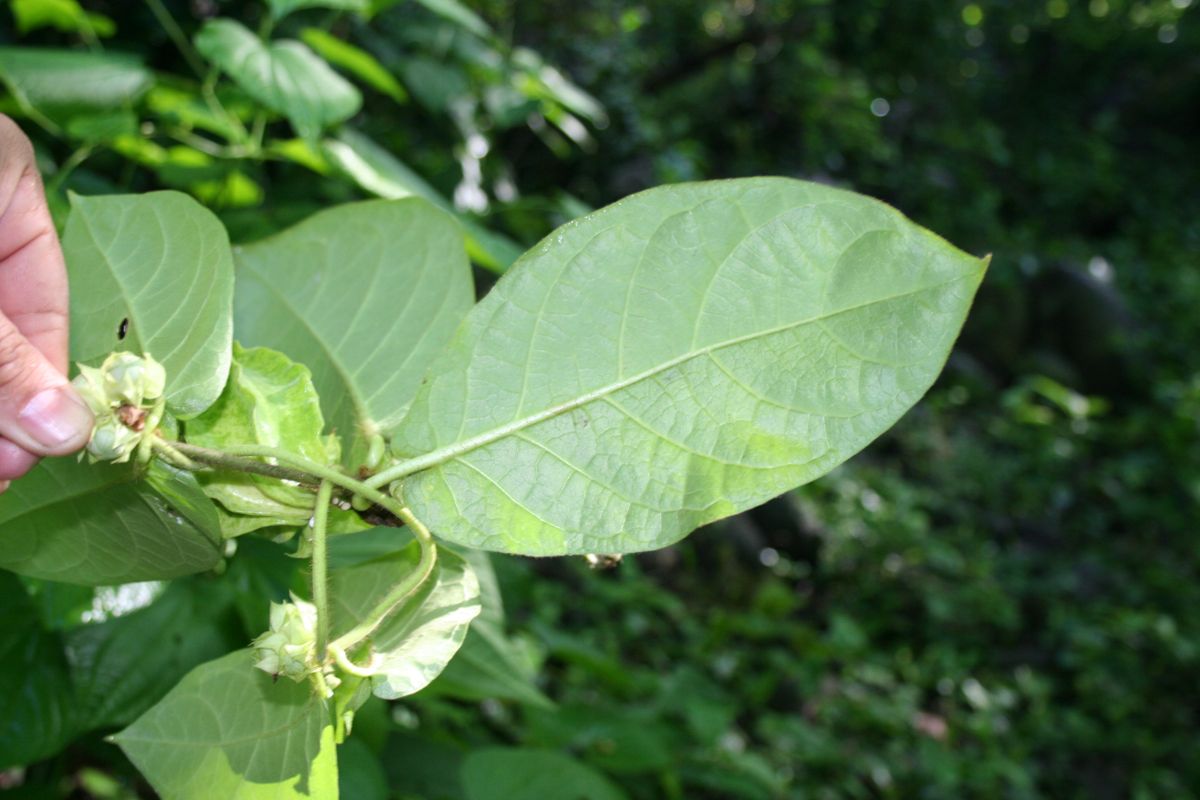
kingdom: Plantae
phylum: Tracheophyta
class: Magnoliopsida
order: Gentianales
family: Apocynaceae
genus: Macroscepis
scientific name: Macroscepis pleistantha
